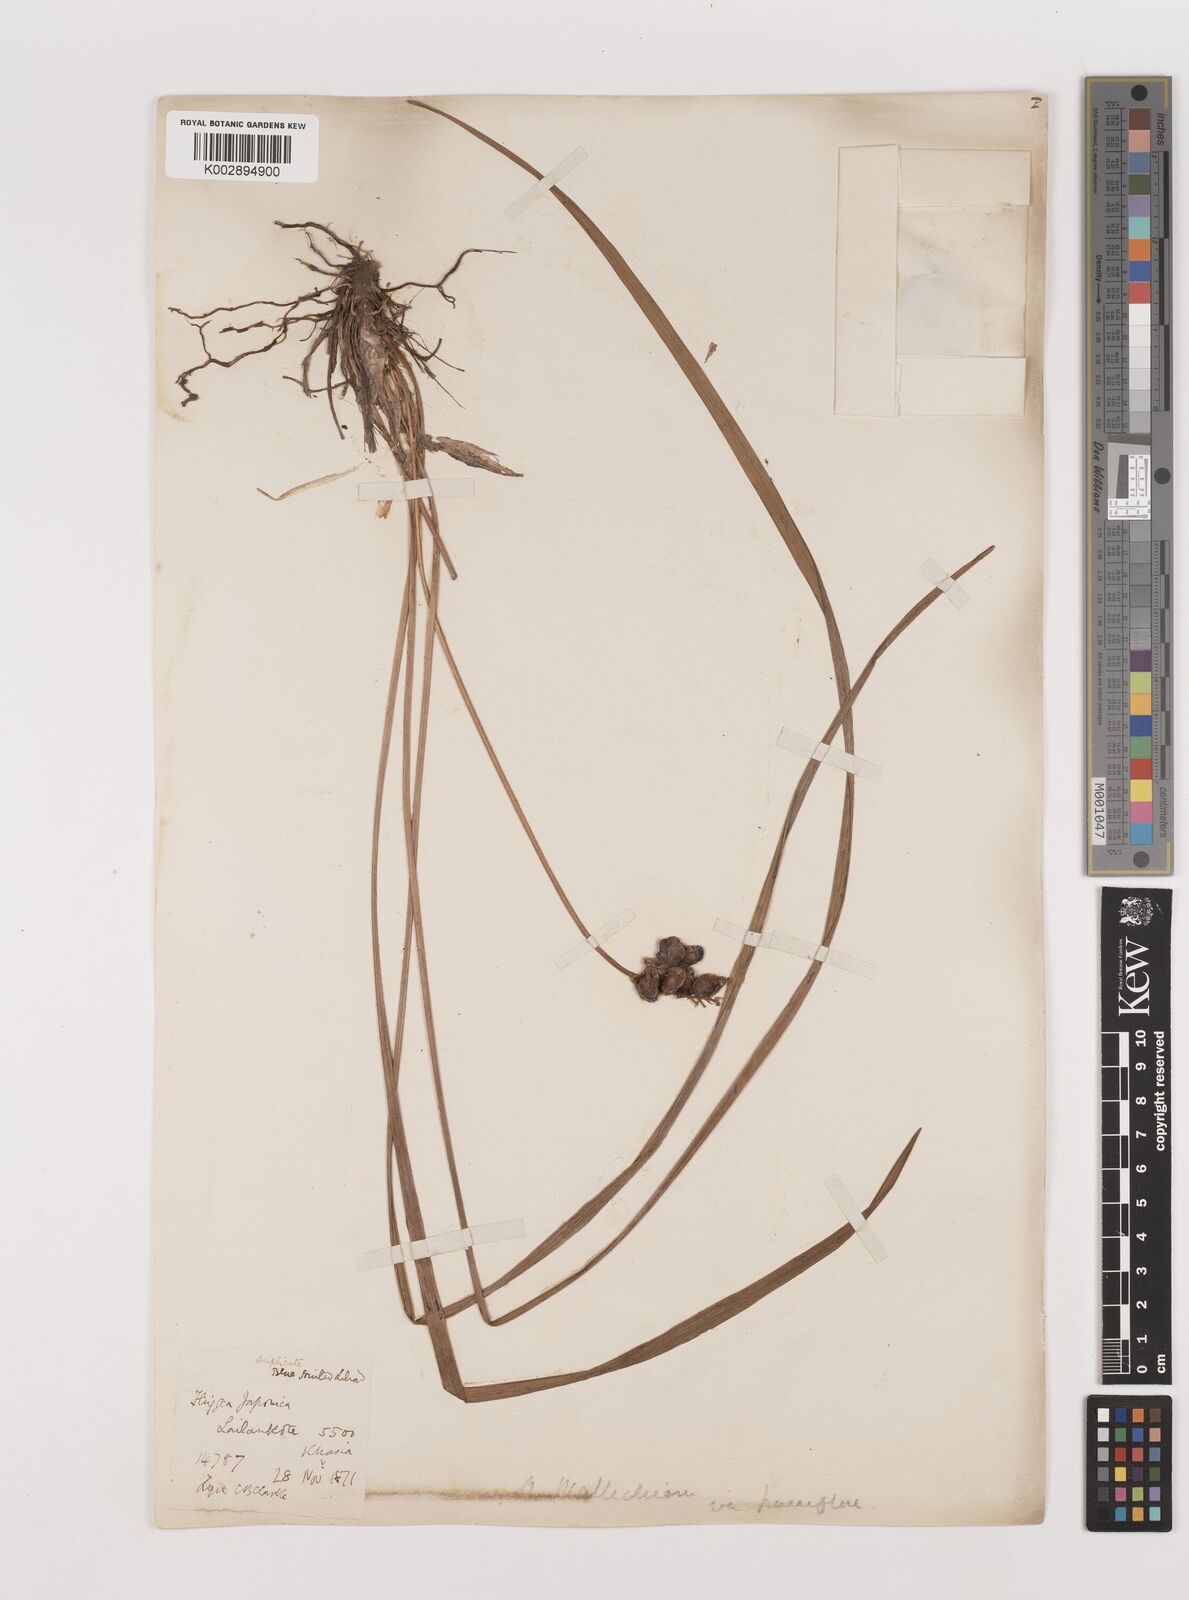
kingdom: Plantae
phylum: Tracheophyta
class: Liliopsida
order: Asparagales
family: Asparagaceae
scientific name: Asparagaceae
